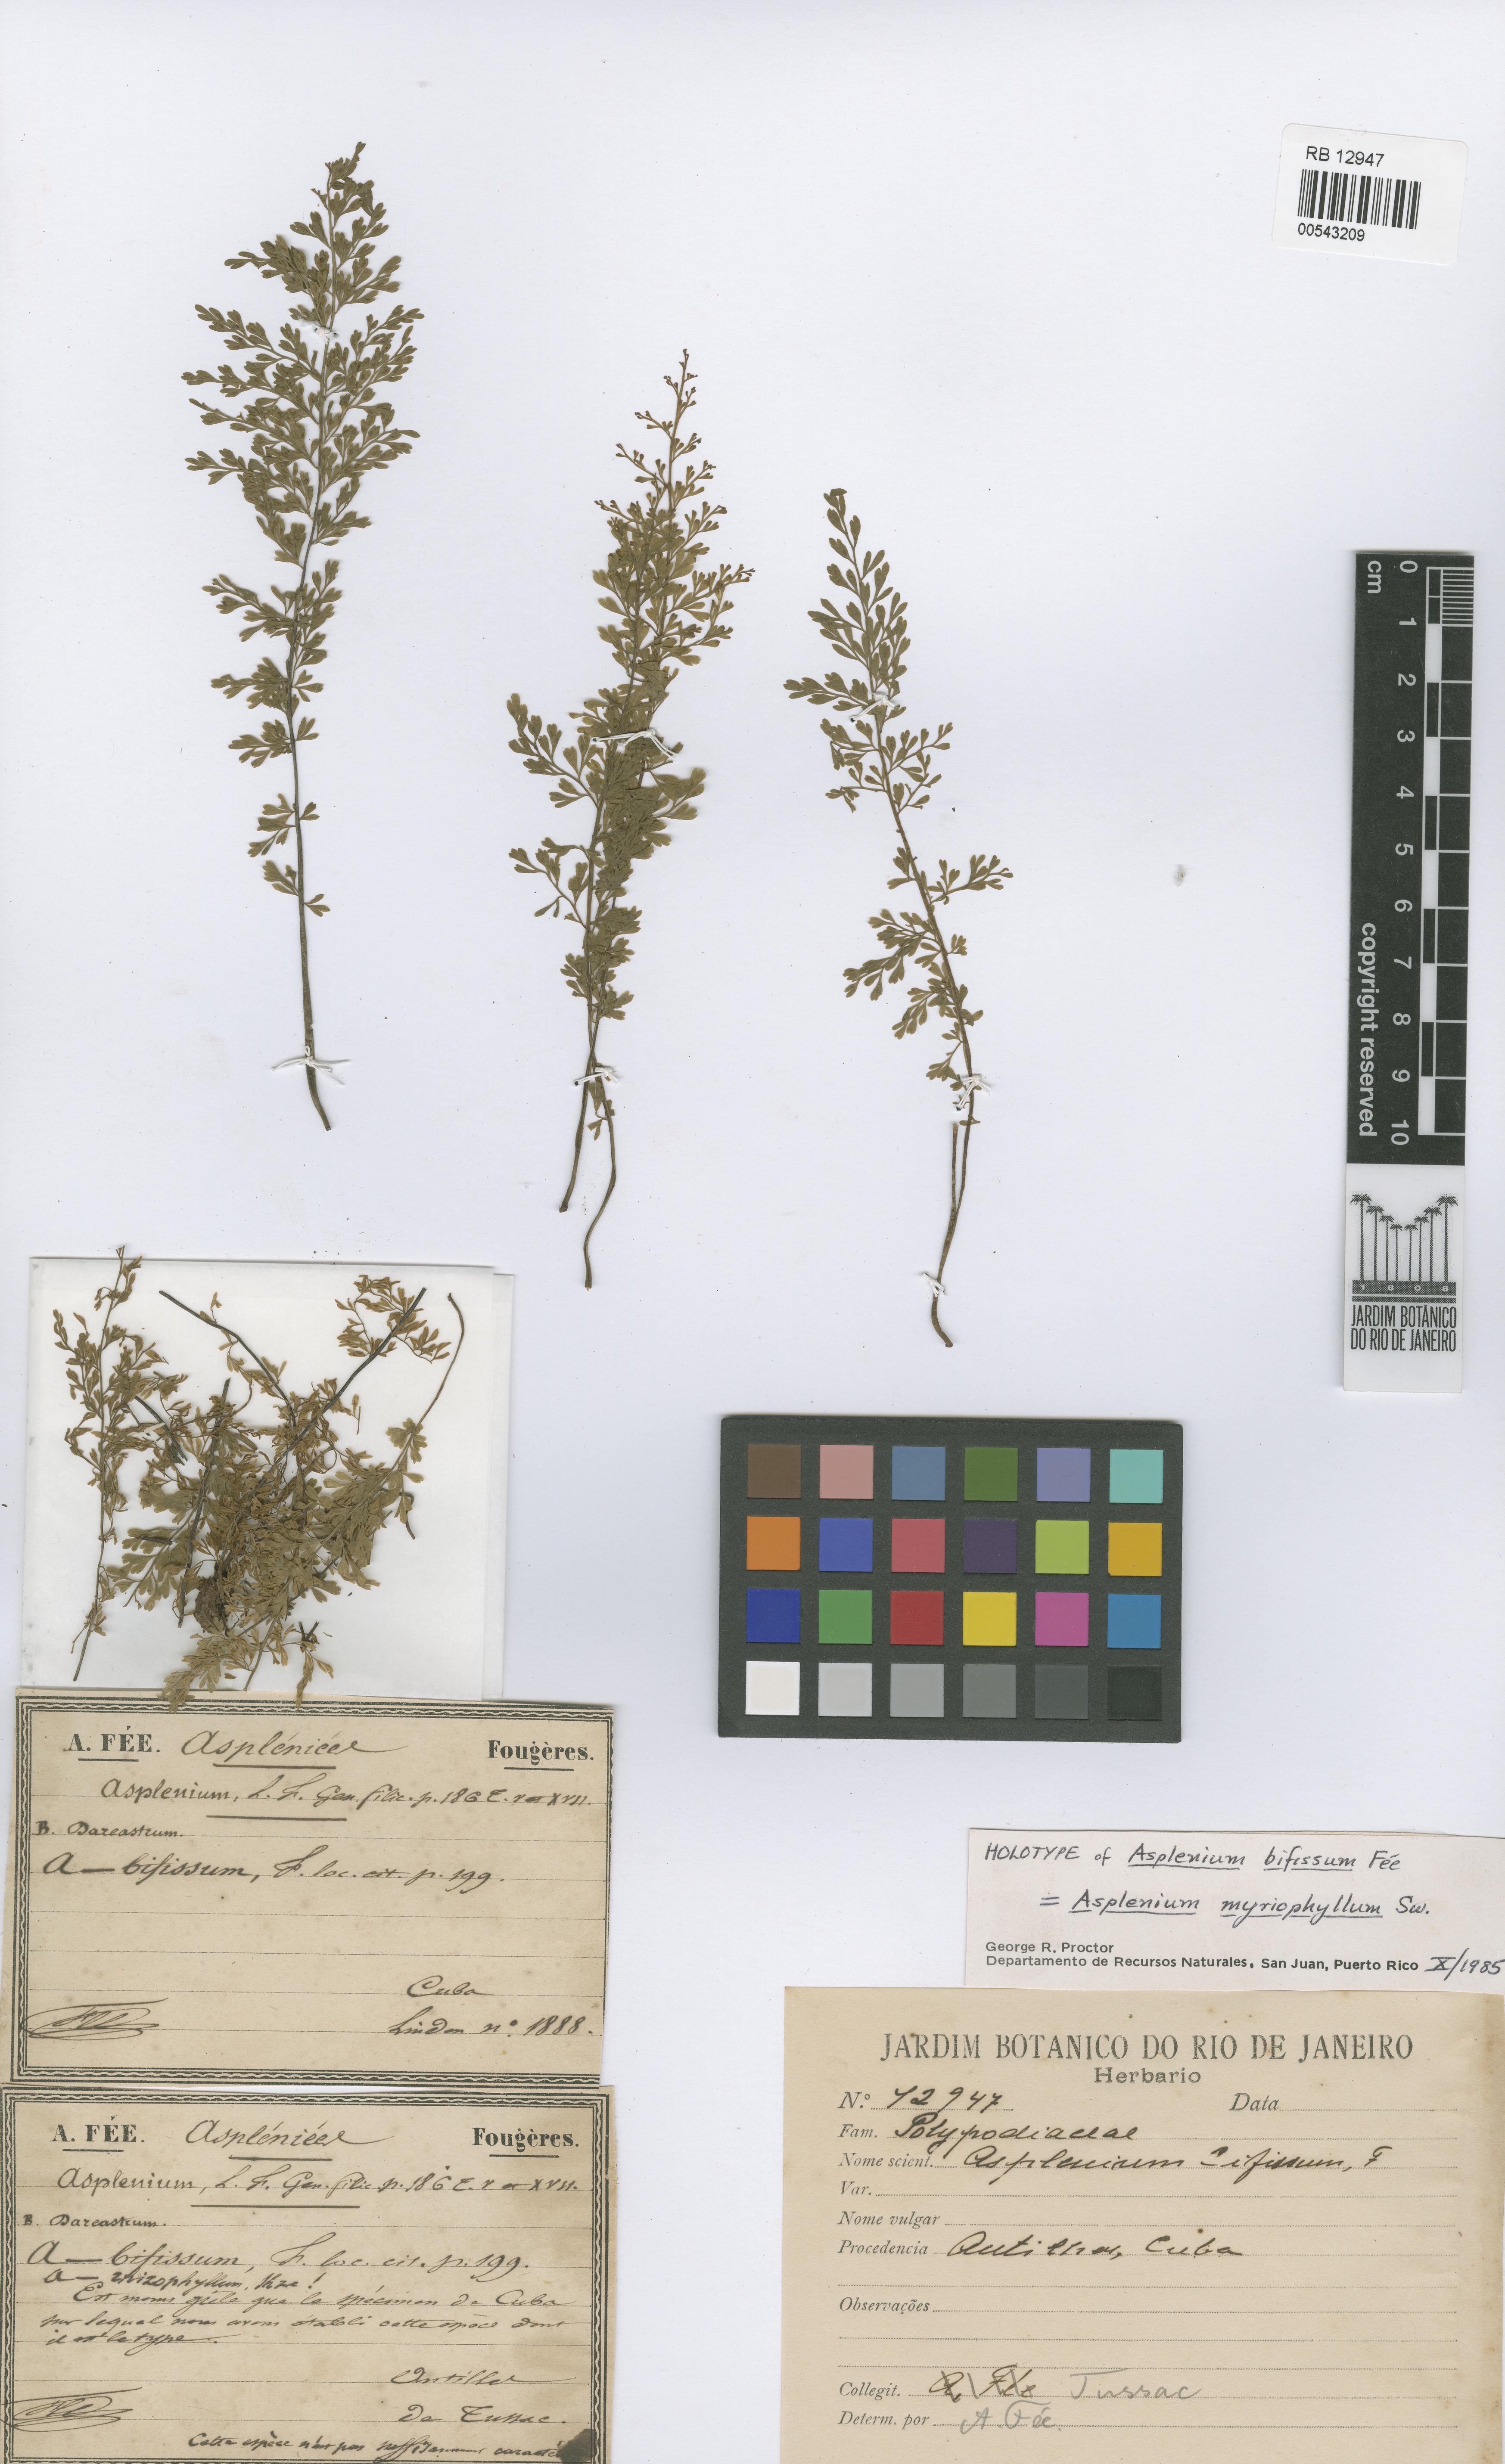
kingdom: Plantae
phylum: Tracheophyta
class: Polypodiopsida
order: Polypodiales
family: Aspleniaceae
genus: Asplenium
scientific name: Asplenium myriophyllum
